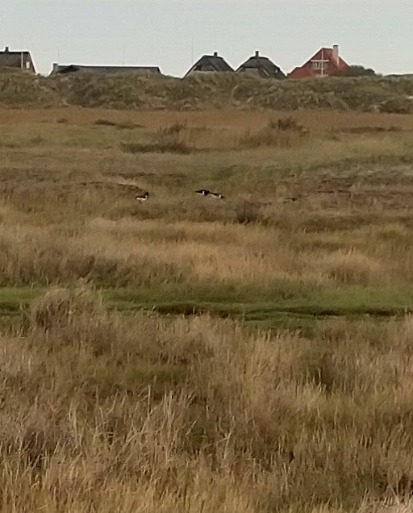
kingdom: Animalia
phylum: Chordata
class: Aves
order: Charadriiformes
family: Haematopodidae
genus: Haematopus
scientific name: Haematopus ostralegus
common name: Strandskade
